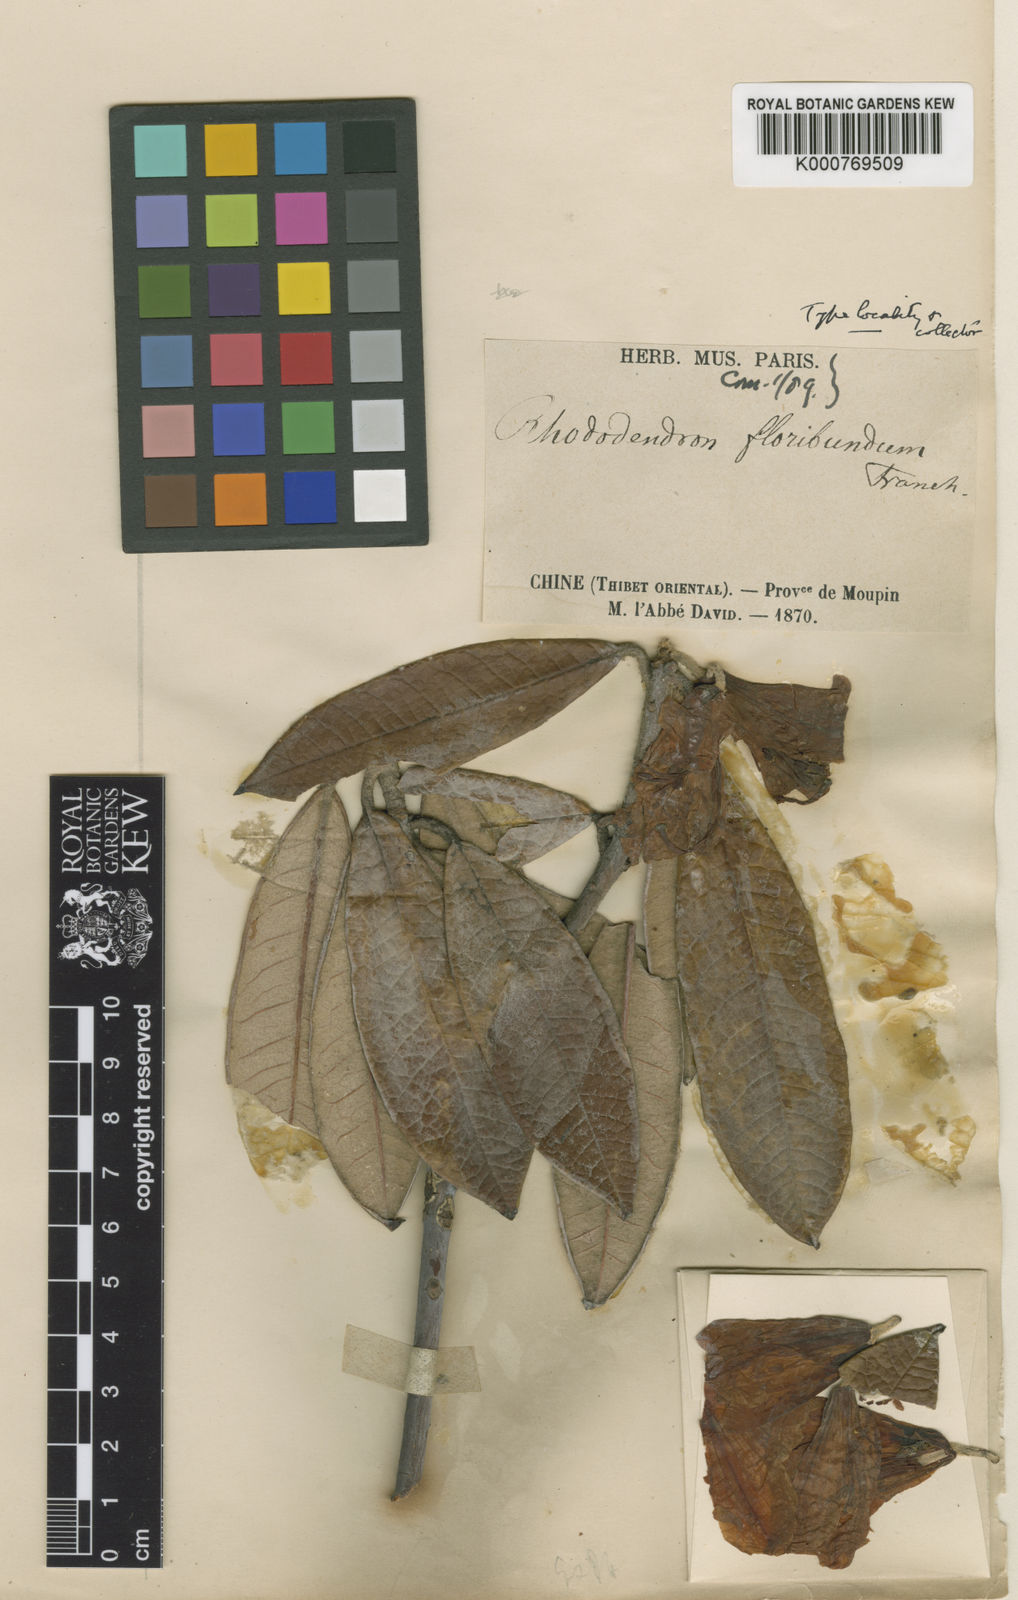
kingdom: Plantae
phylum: Tracheophyta
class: Magnoliopsida
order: Ericales
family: Ericaceae
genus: Rhododendron
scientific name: Rhododendron floribundum
